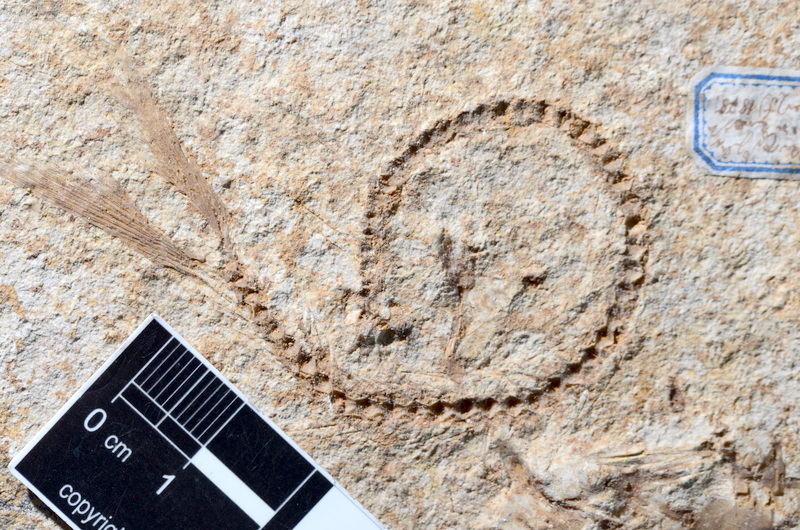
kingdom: Animalia
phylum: Chordata
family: Ascalaboidae
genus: Tharsis
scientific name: Tharsis dubius
